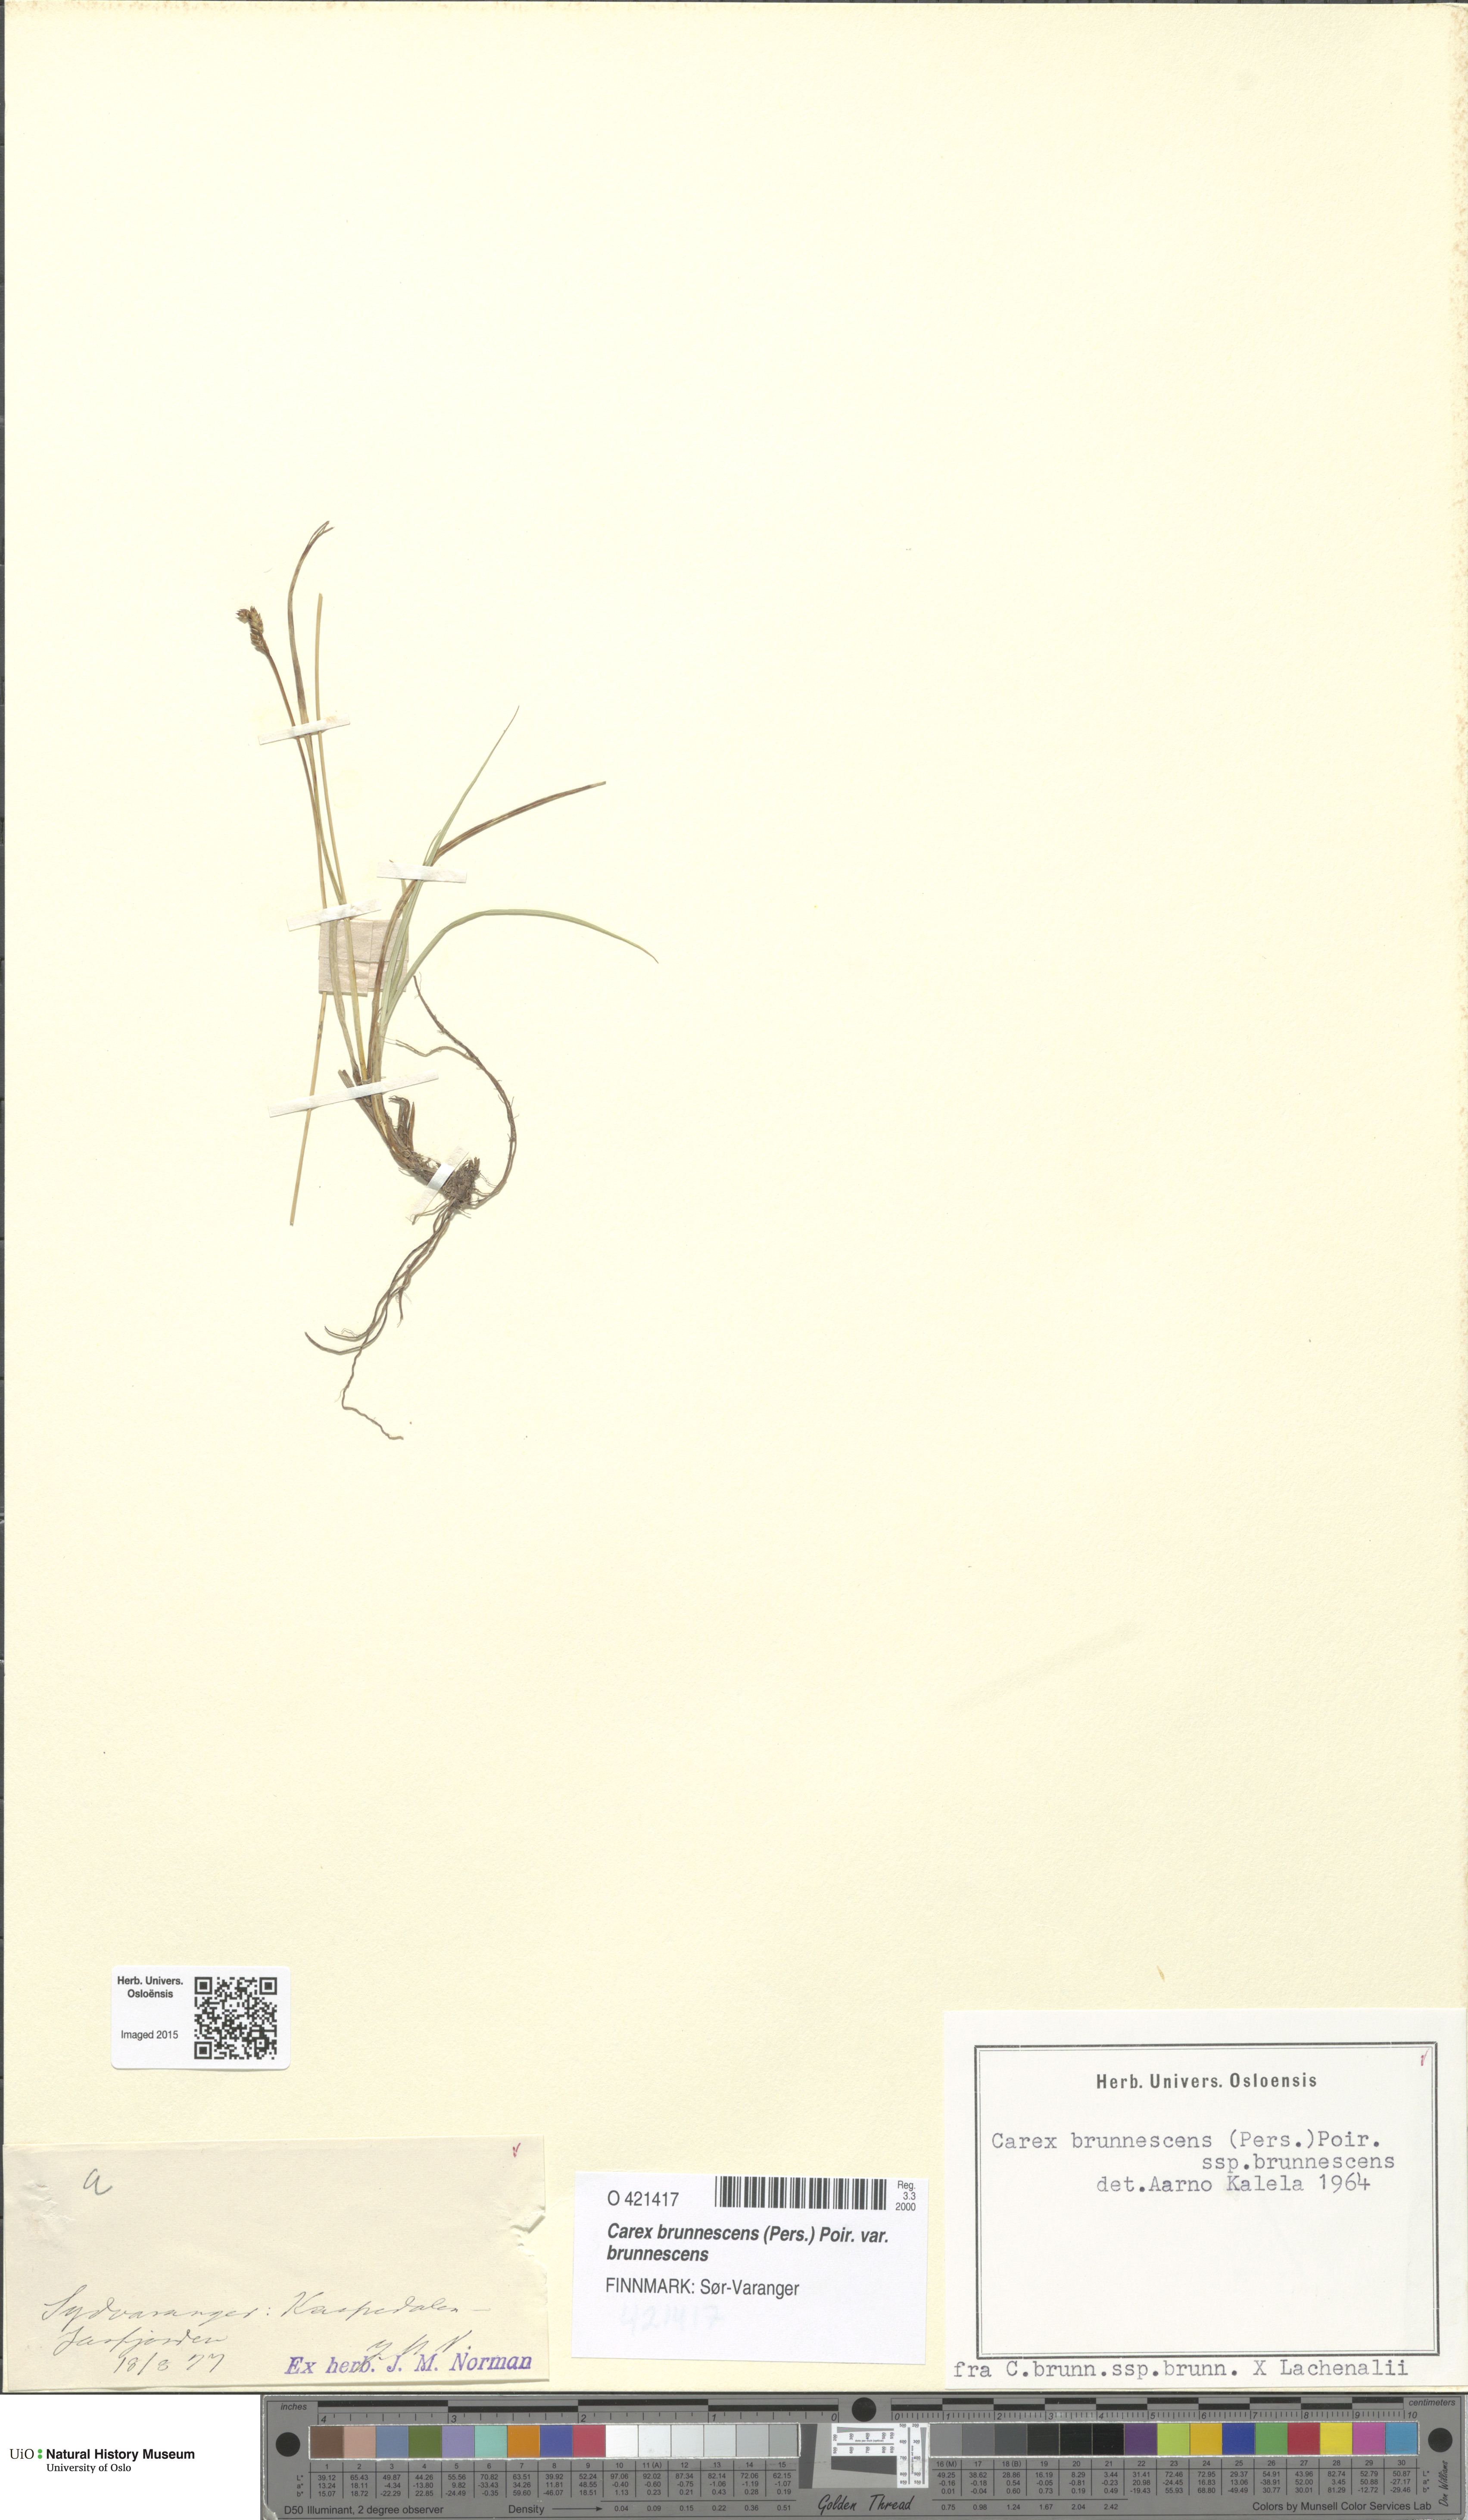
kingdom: Plantae
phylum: Tracheophyta
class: Liliopsida
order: Poales
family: Cyperaceae
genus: Carex
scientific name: Carex brunnescens
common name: Brown sedge
